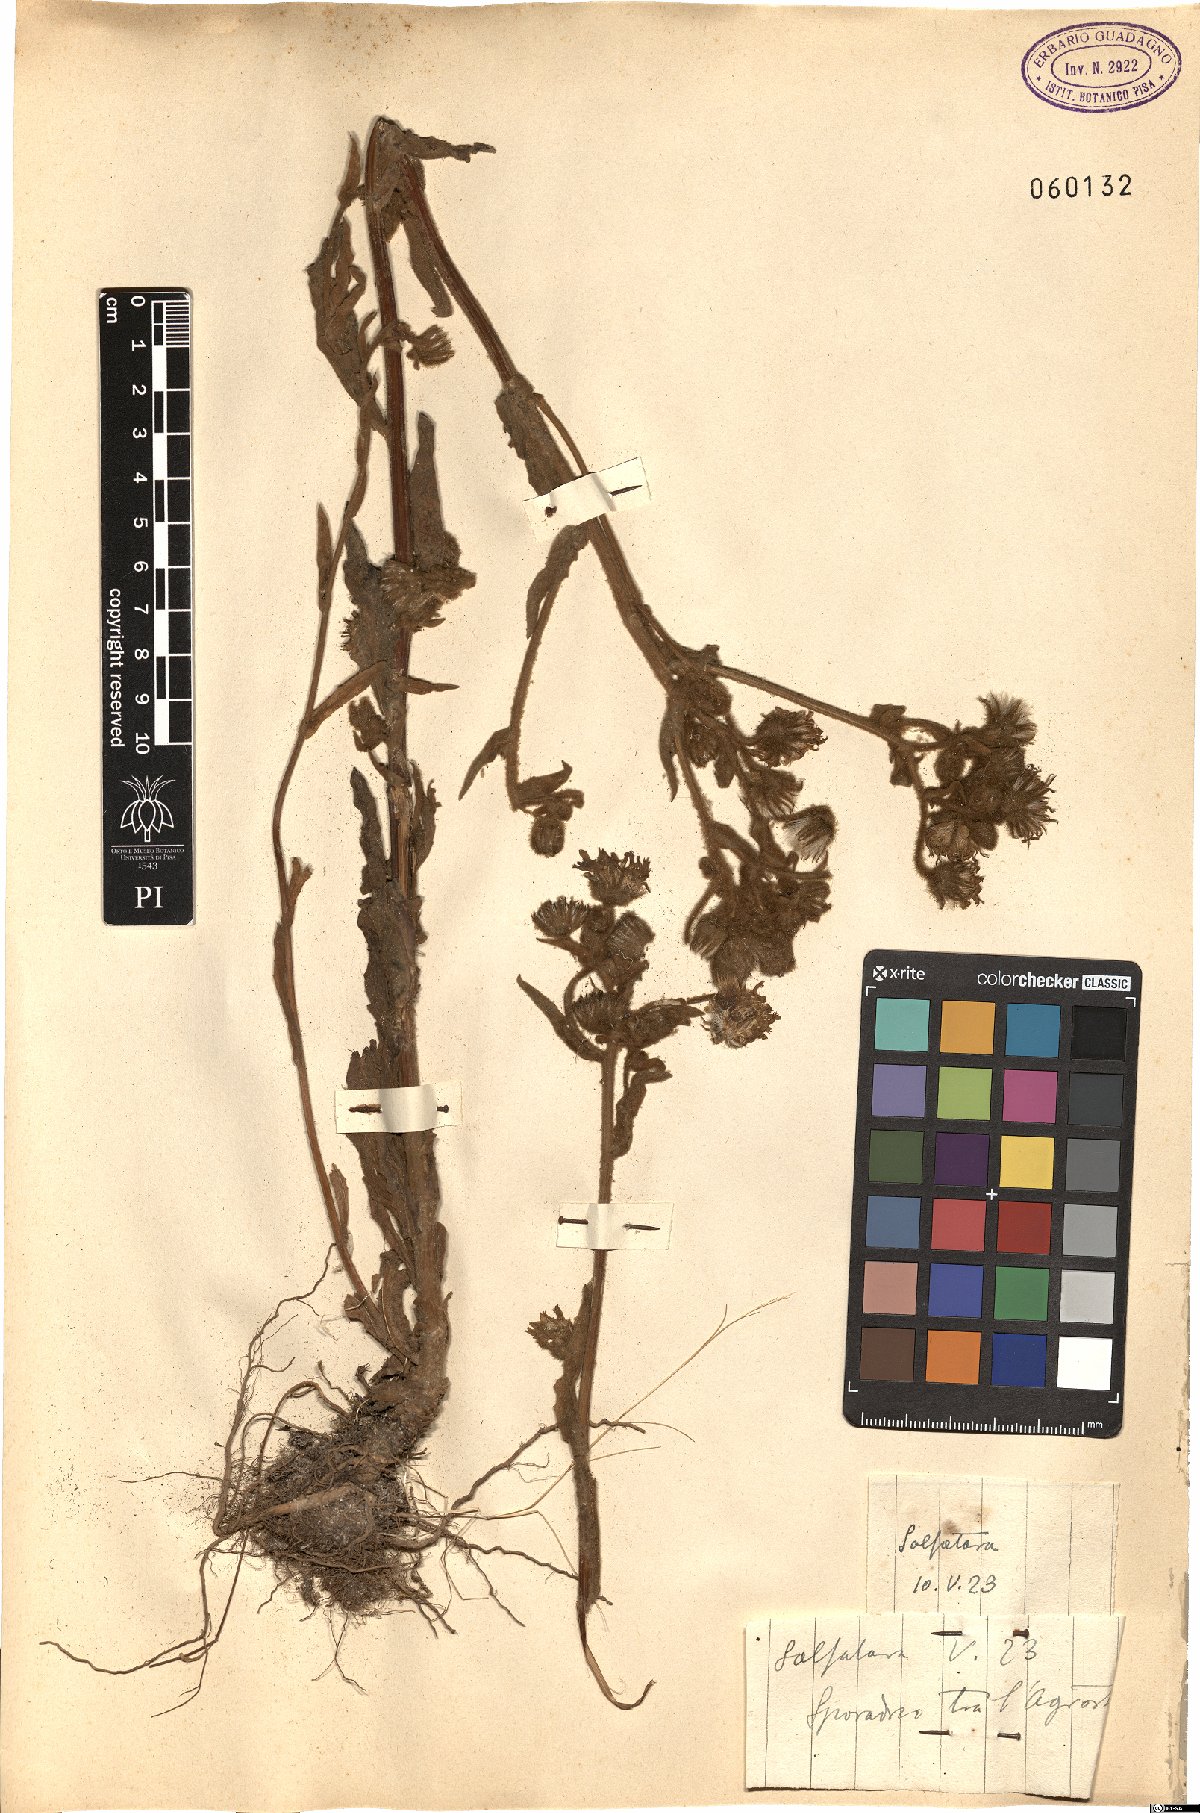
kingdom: Plantae
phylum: Tracheophyta
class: Magnoliopsida
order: Asterales
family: Asteraceae
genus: Andryala
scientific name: Andryala integrifolia
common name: Common andryala
